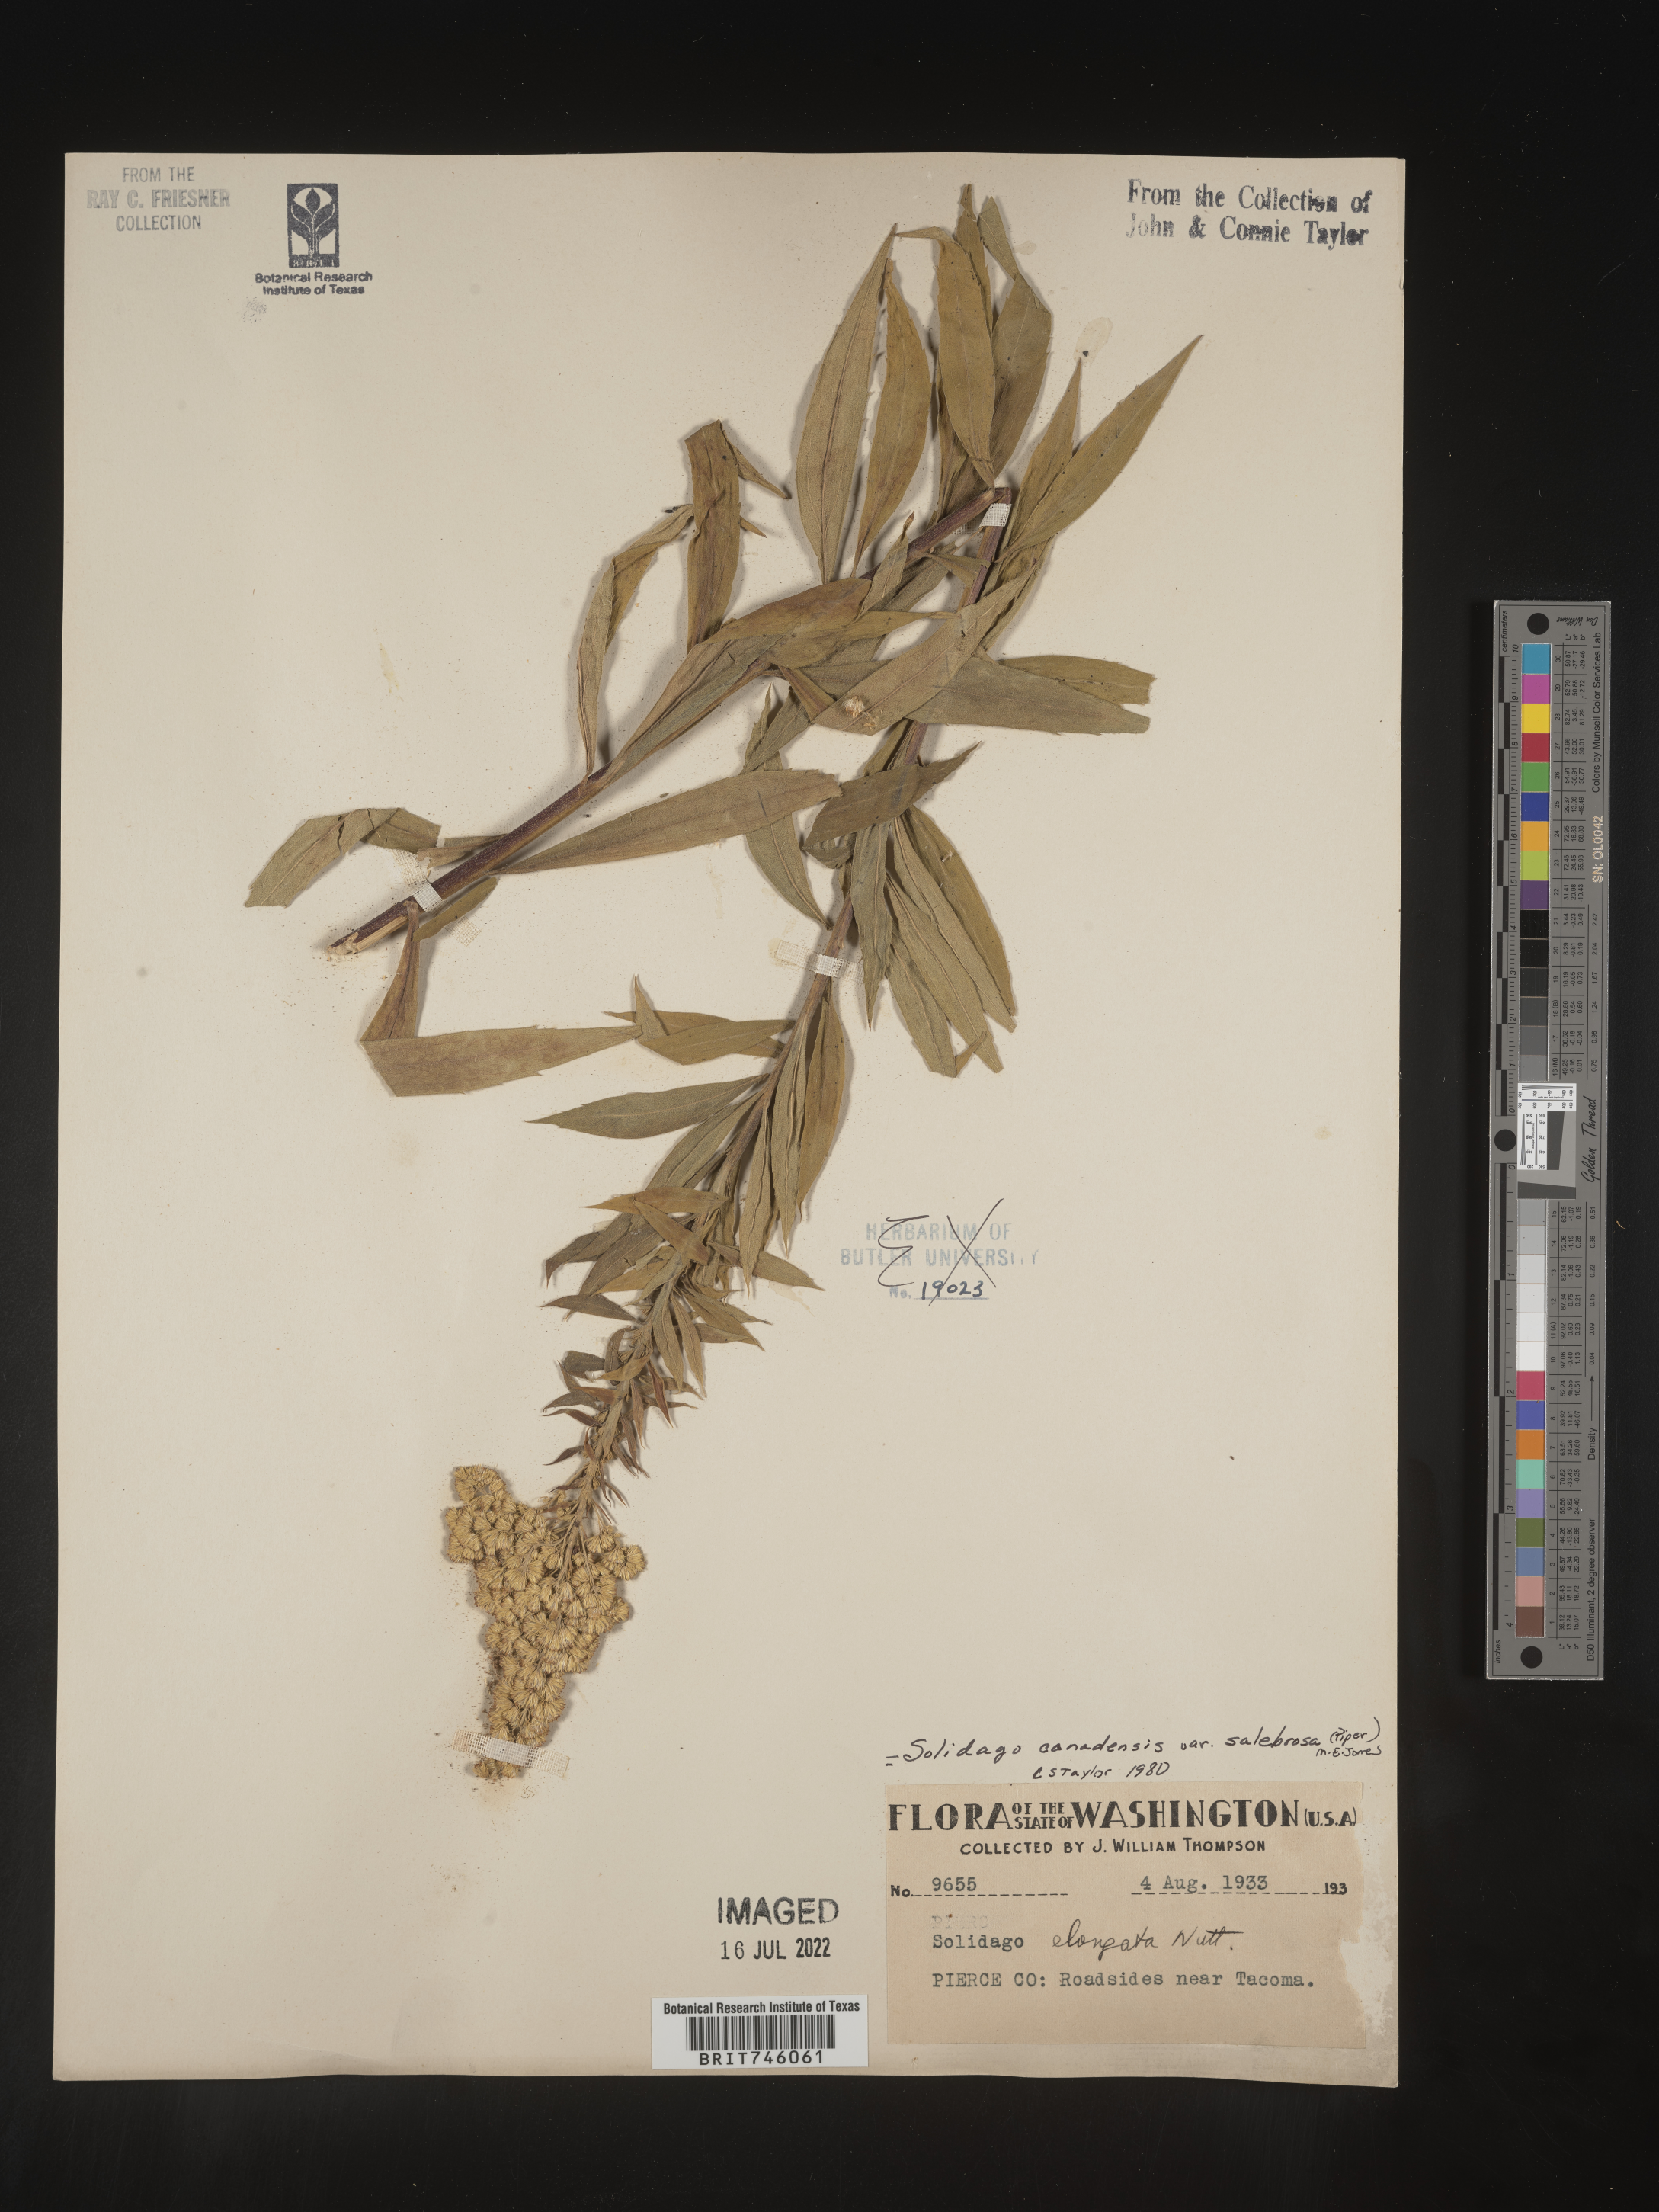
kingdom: Plantae
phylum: Tracheophyta
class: Magnoliopsida
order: Asterales
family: Asteraceae
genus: Solidago
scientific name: Solidago lepida
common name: Western canada goldenrod
